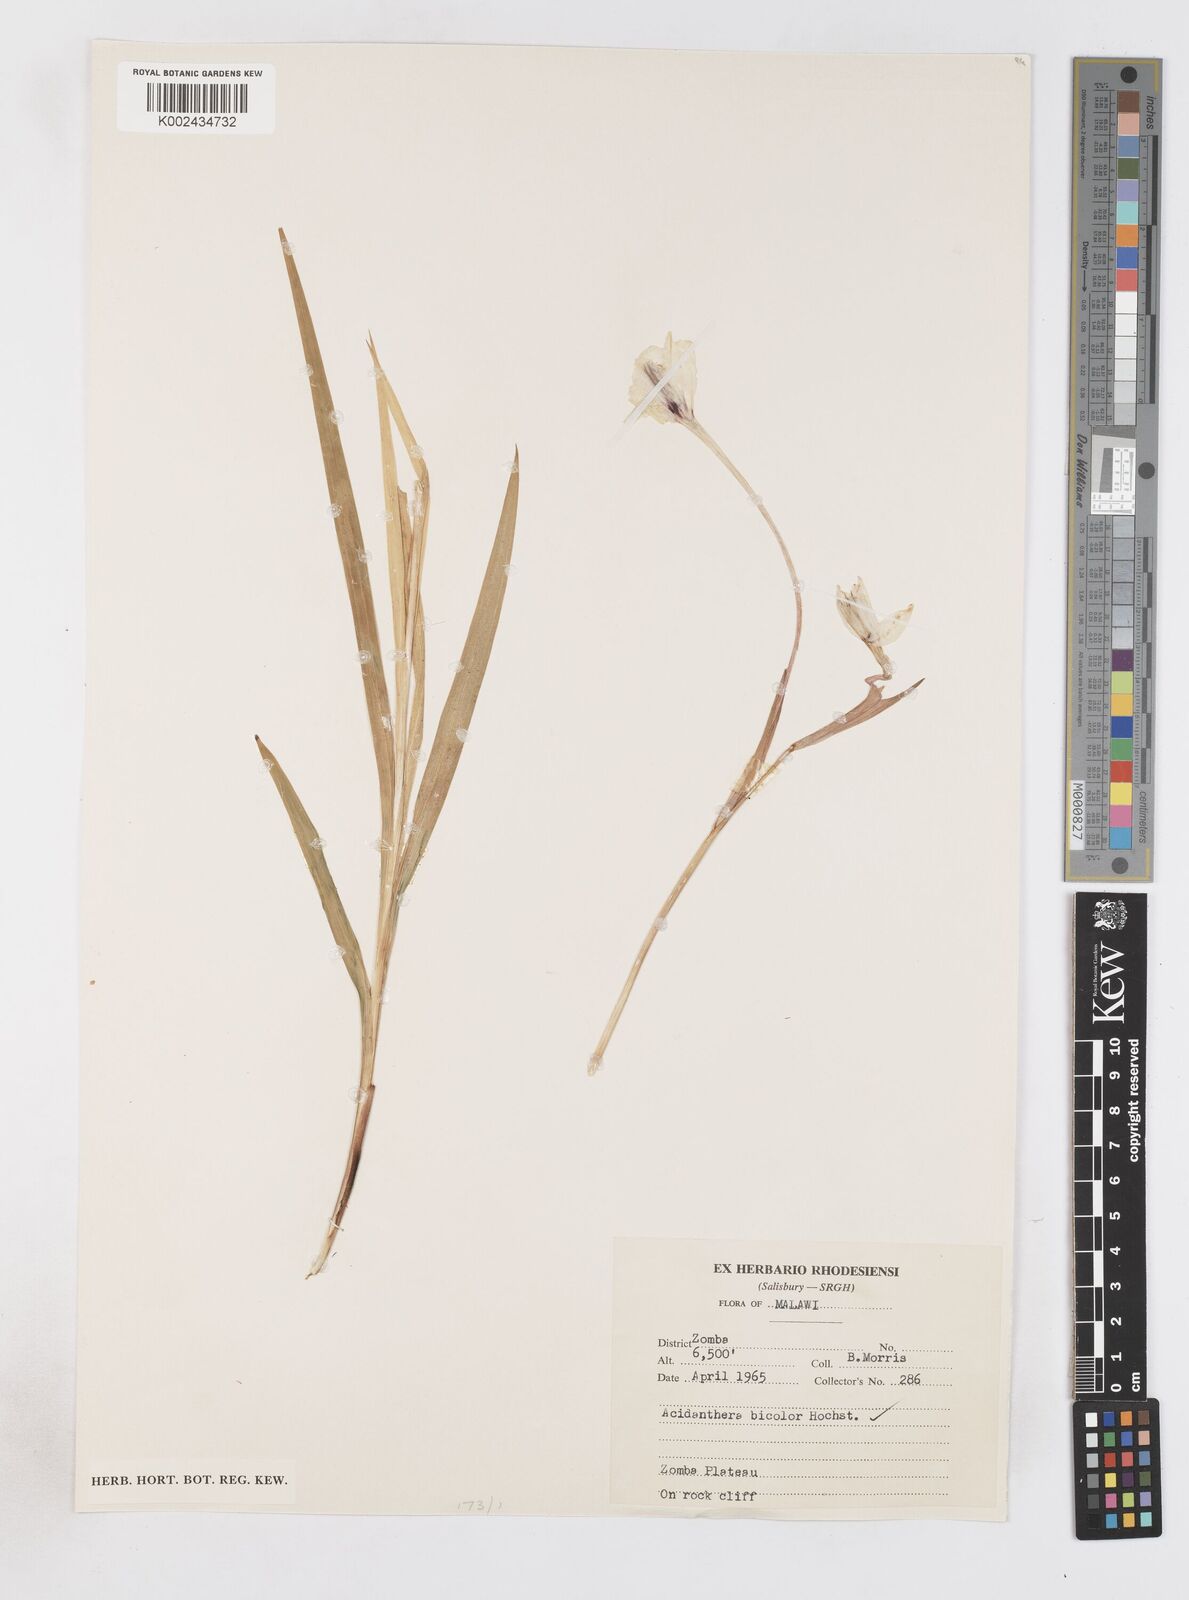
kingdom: Plantae
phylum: Tracheophyta
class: Liliopsida
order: Asparagales
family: Iridaceae
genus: Gladiolus
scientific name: Gladiolus murielae
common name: Acidanthera
